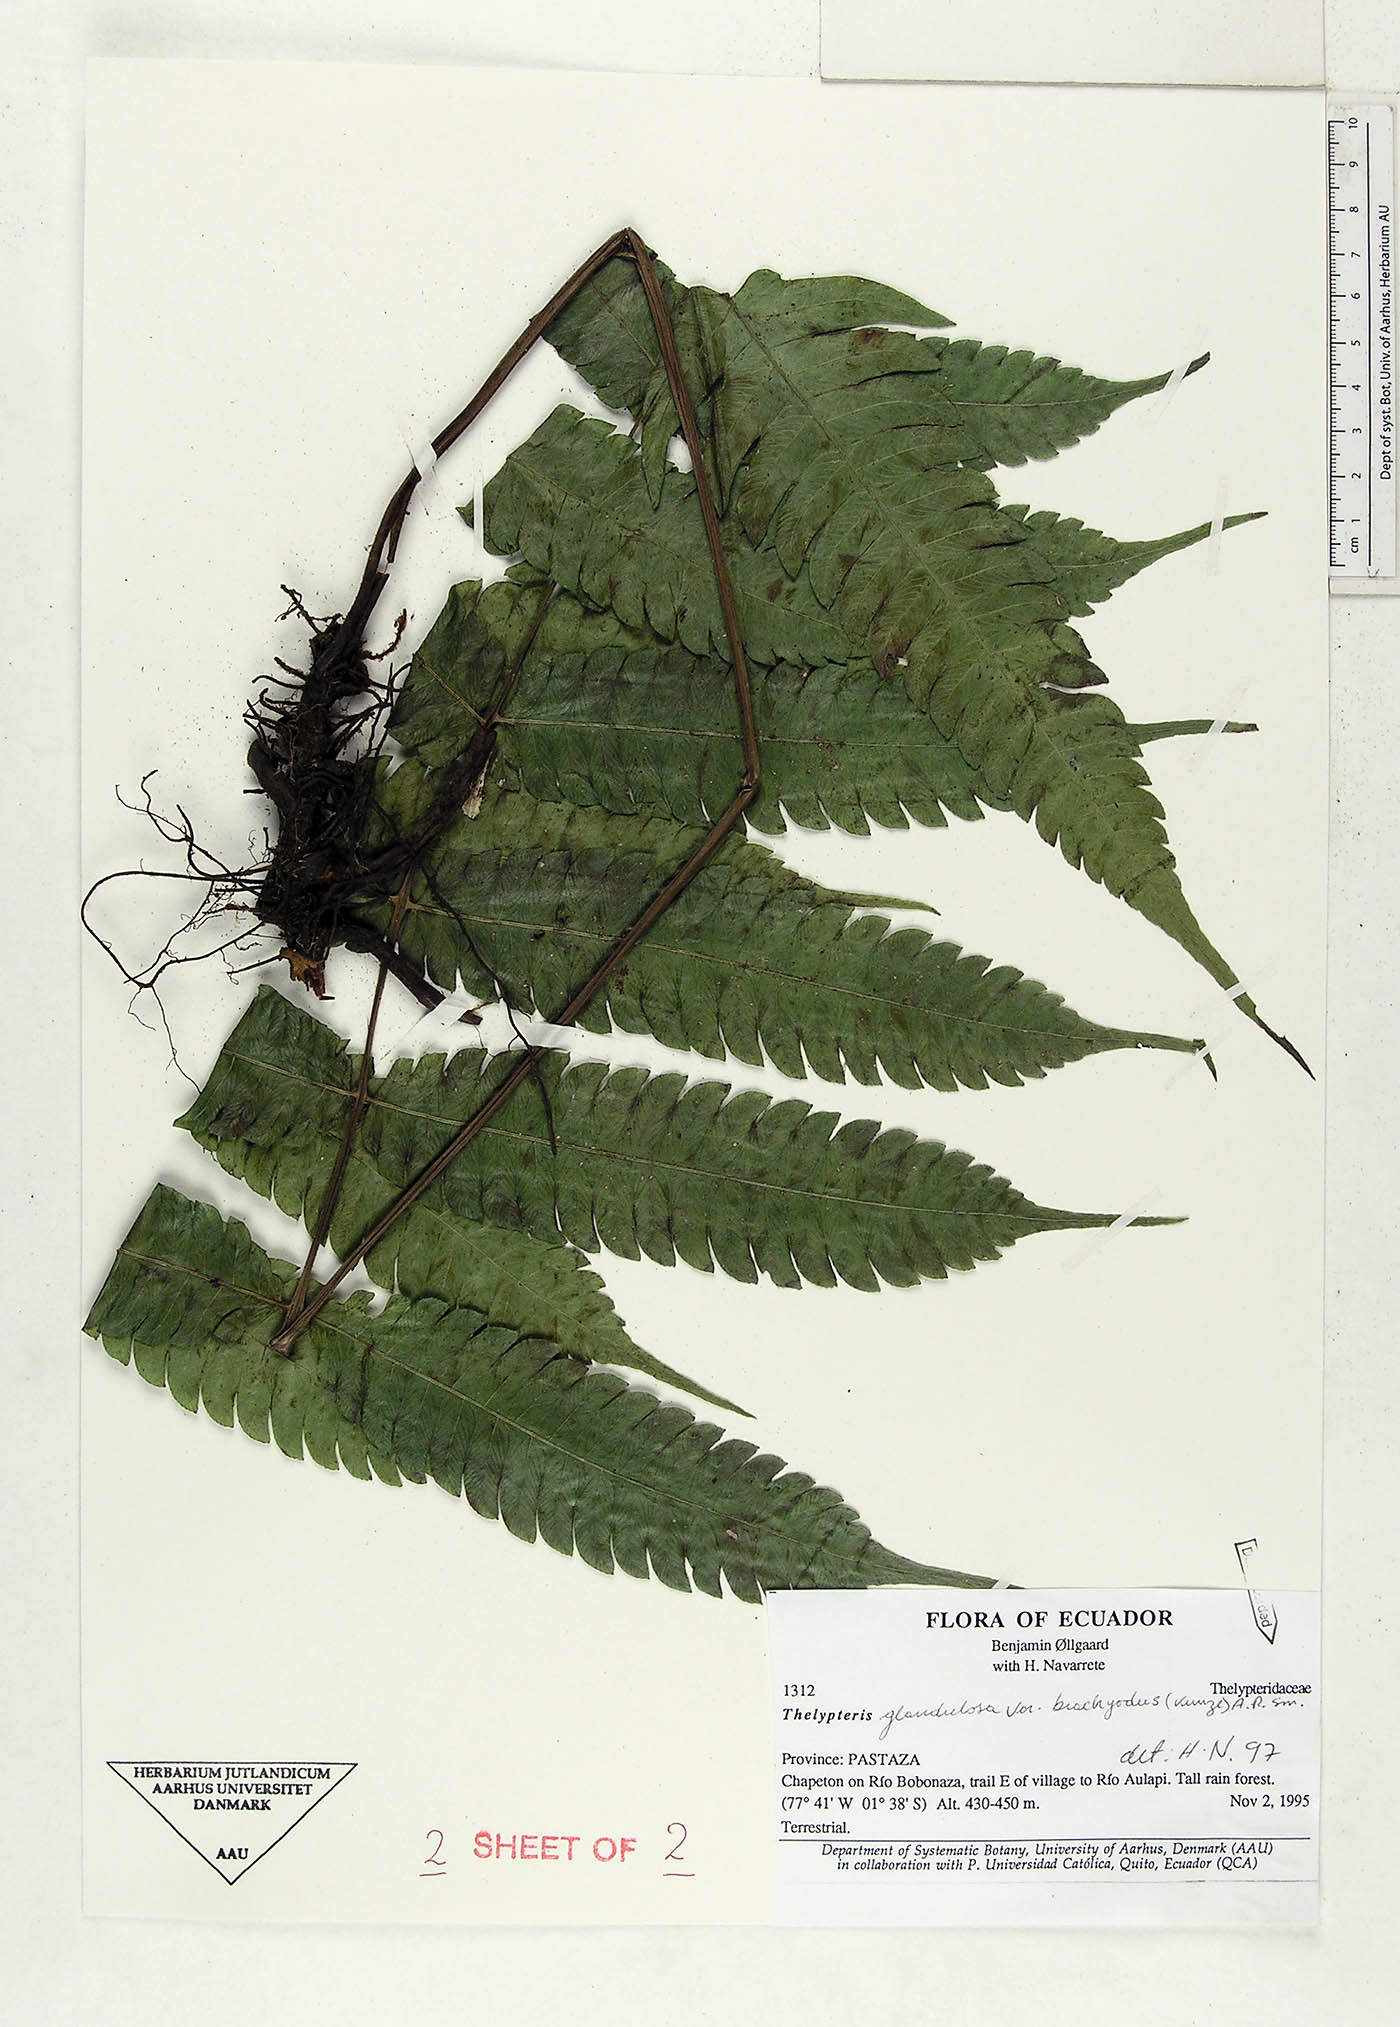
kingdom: Plantae
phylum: Tracheophyta
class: Polypodiopsida
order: Polypodiales
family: Thelypteridaceae
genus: Steiropteris
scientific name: Steiropteris glandulosa
